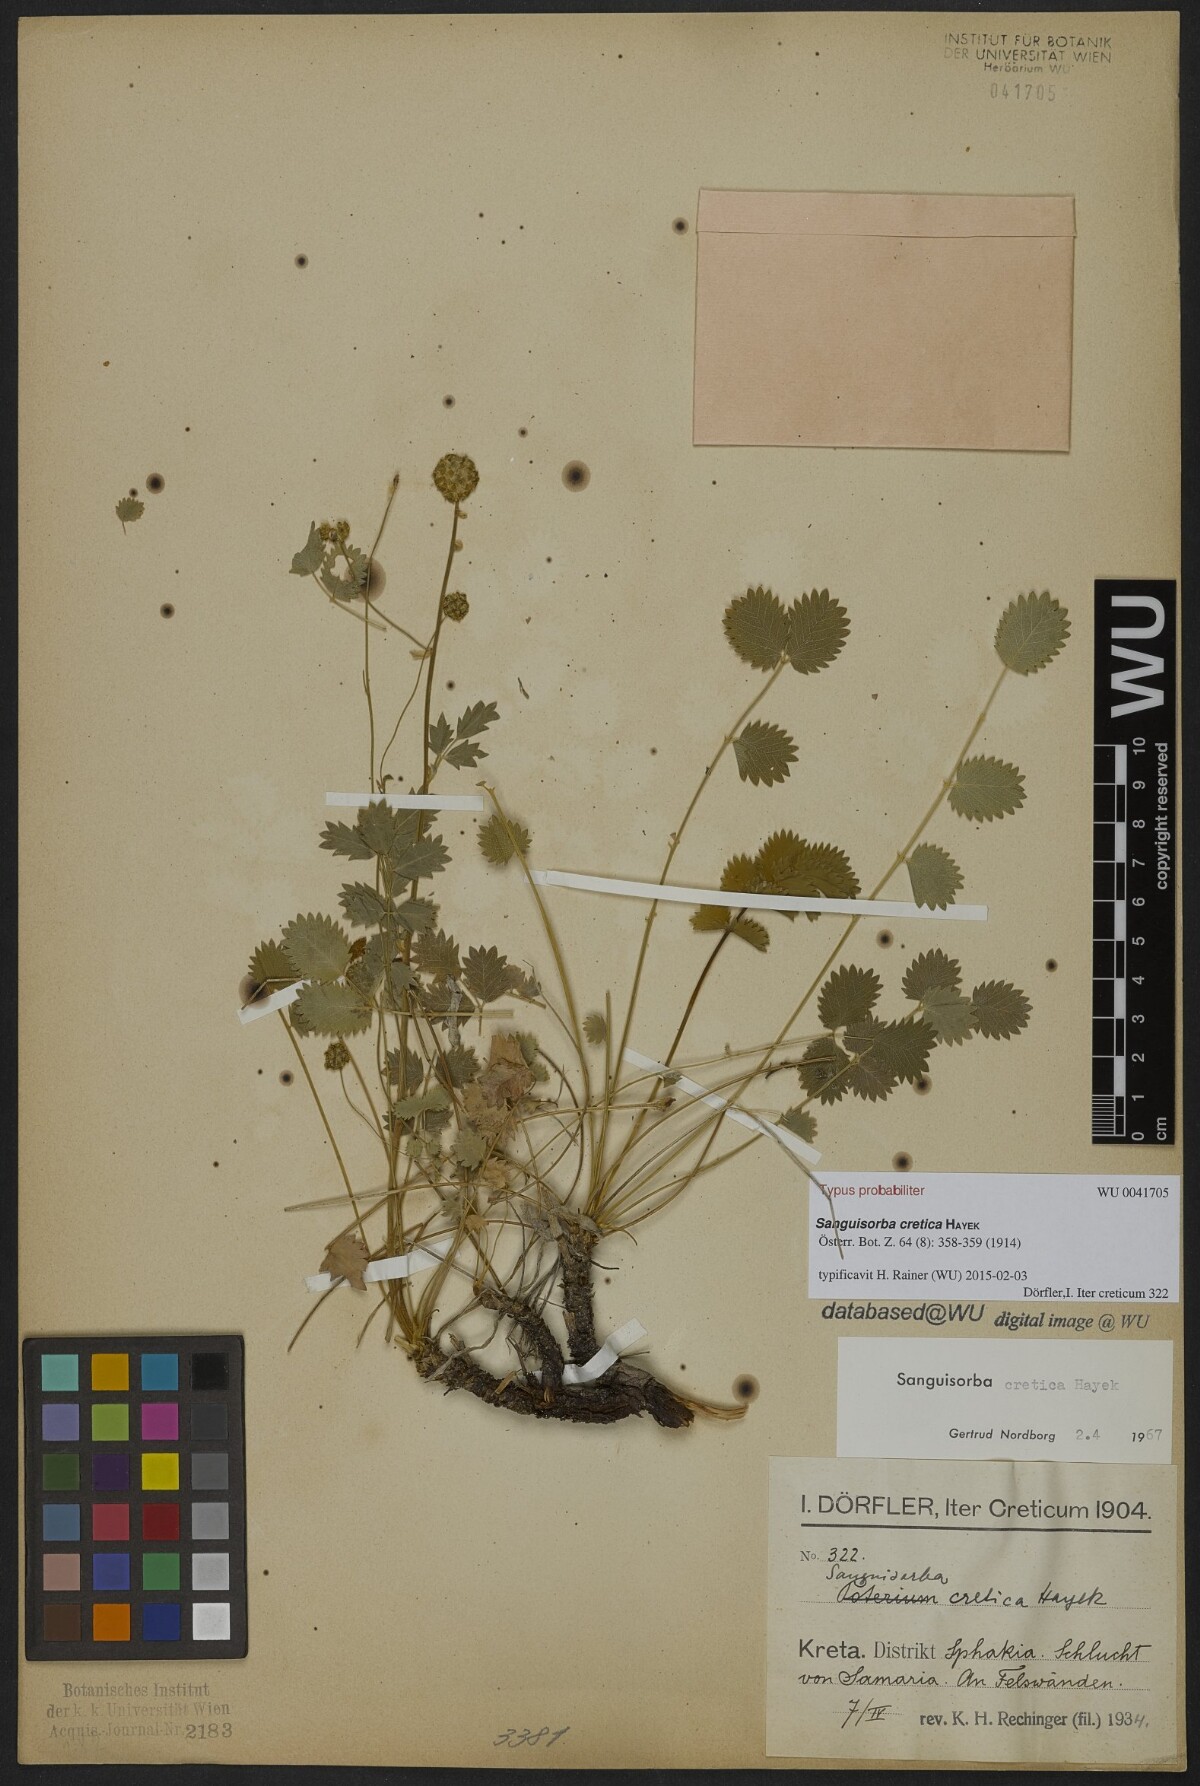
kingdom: Plantae
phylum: Tracheophyta
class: Magnoliopsida
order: Rosales
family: Rosaceae
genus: Poterium
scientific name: Poterium creticum
